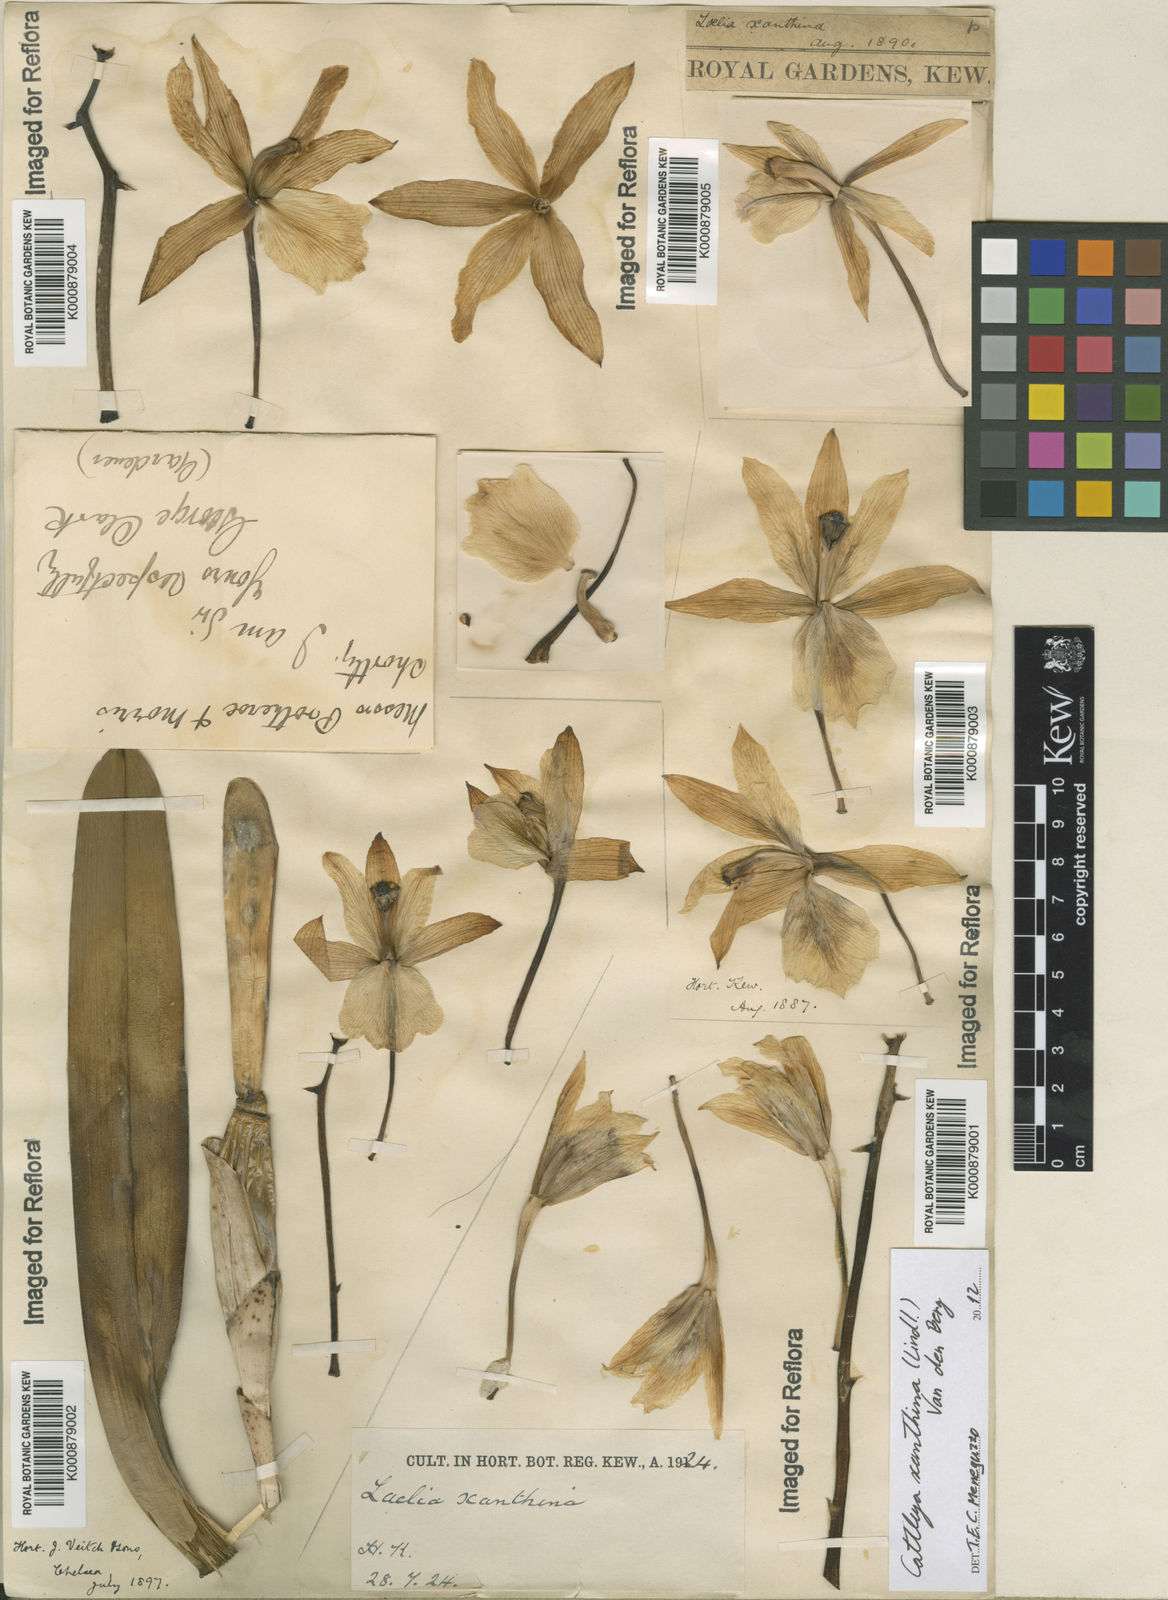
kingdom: Plantae
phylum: Tracheophyta
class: Liliopsida
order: Asparagales
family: Orchidaceae
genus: Cattleya
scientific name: Cattleya xanthina
